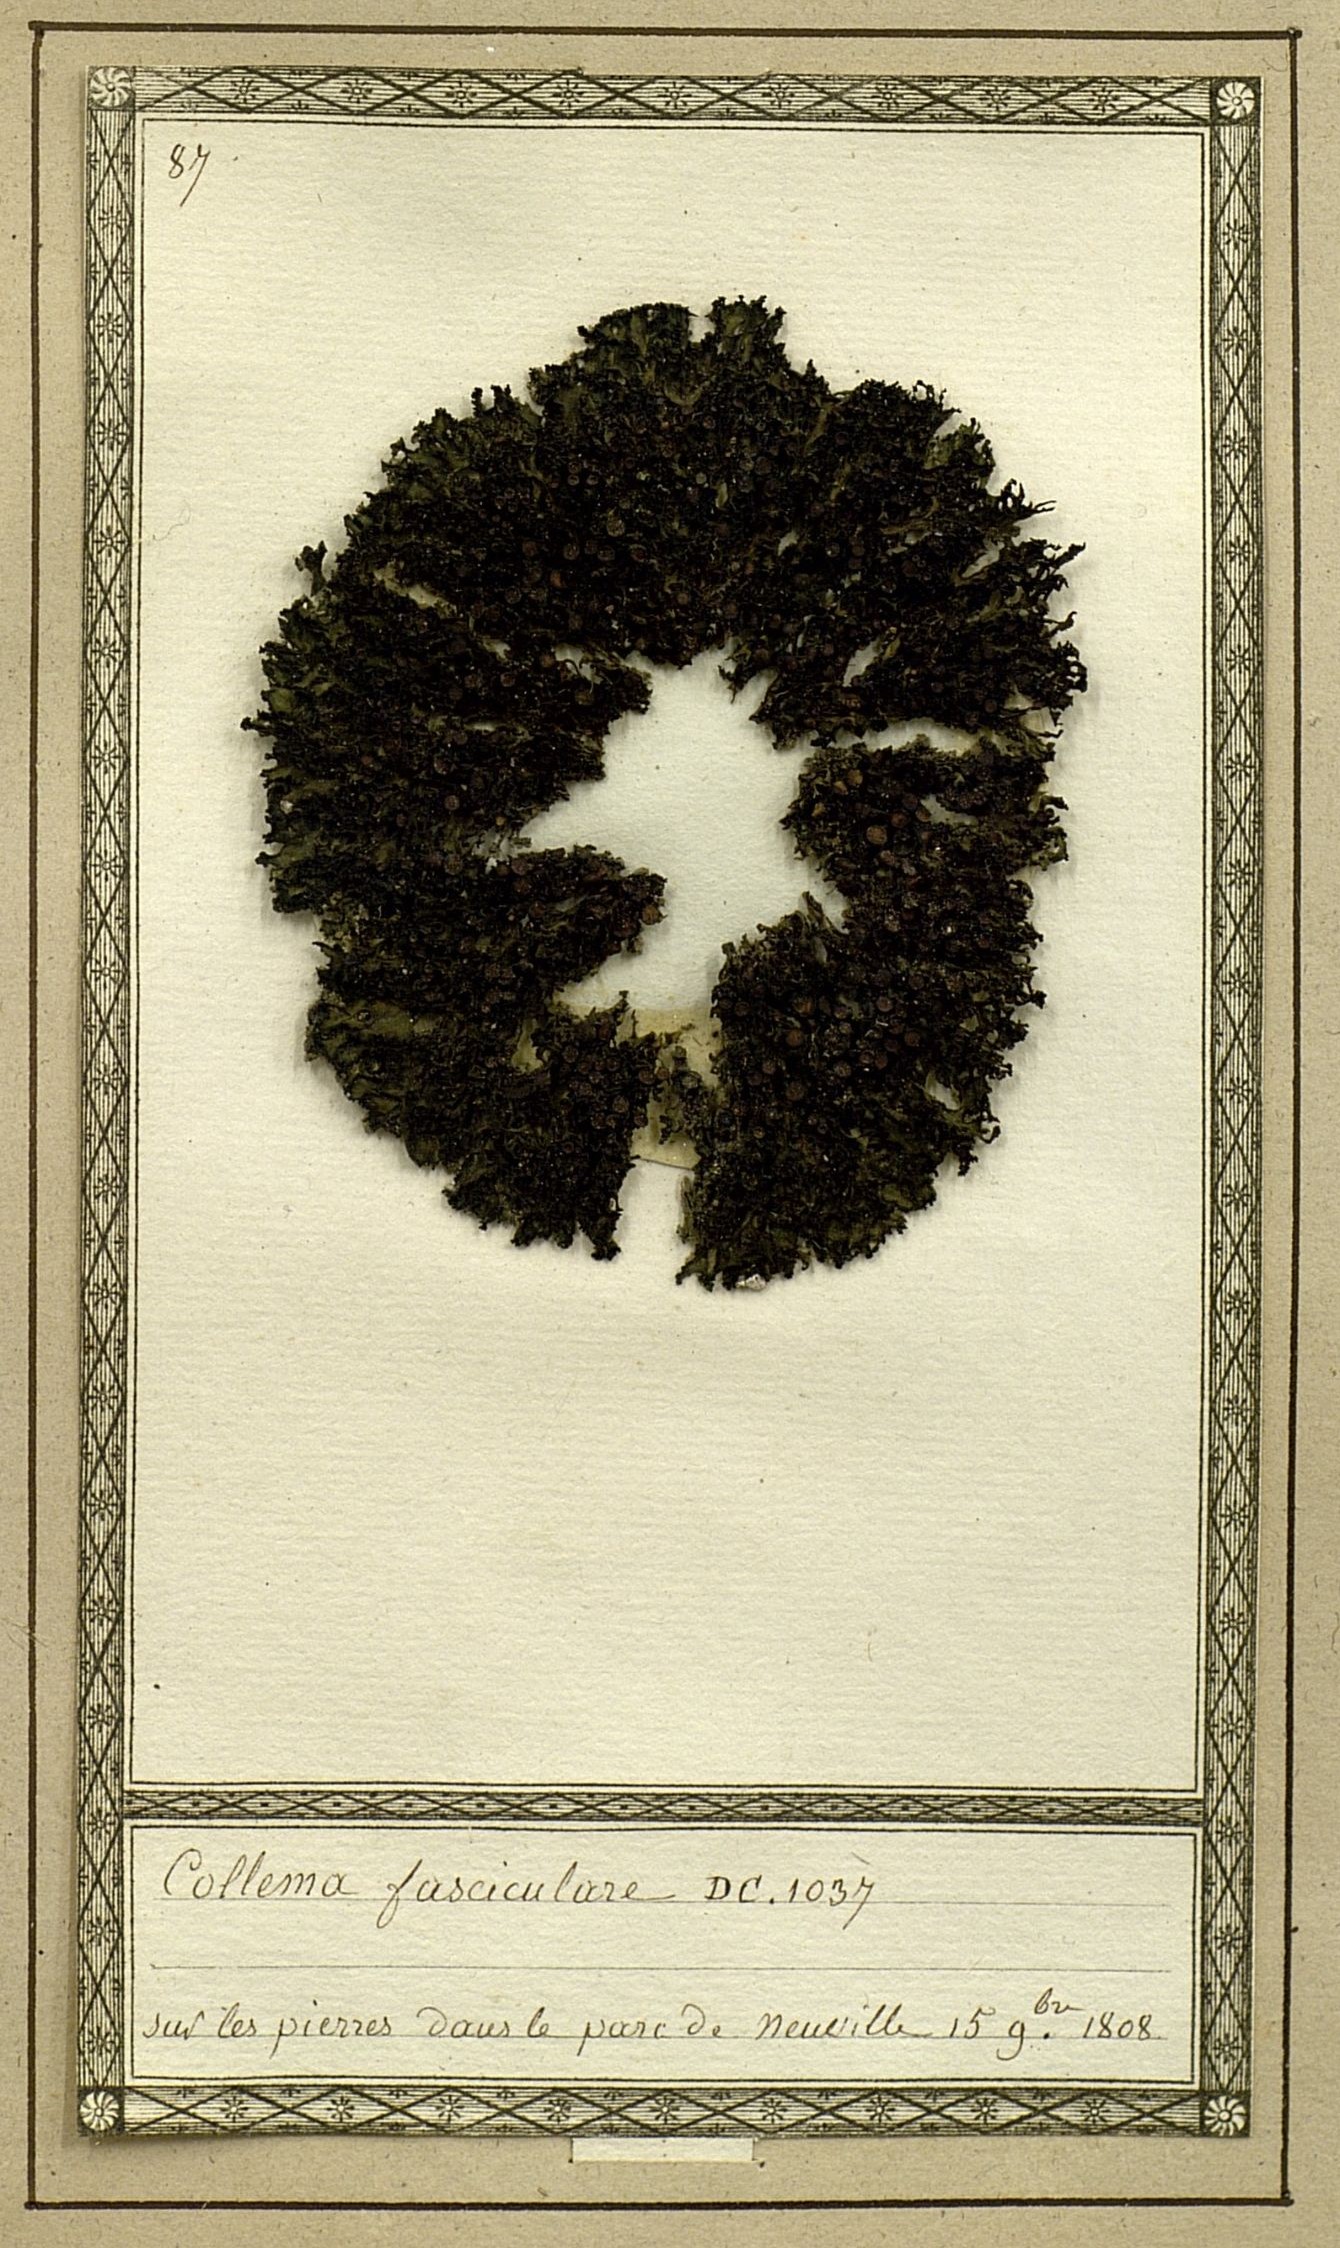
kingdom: Bacteria
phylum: Cyanobacteria
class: Cyanobacteriia
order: Cyanobacteriales
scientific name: Cyanobacteriales
